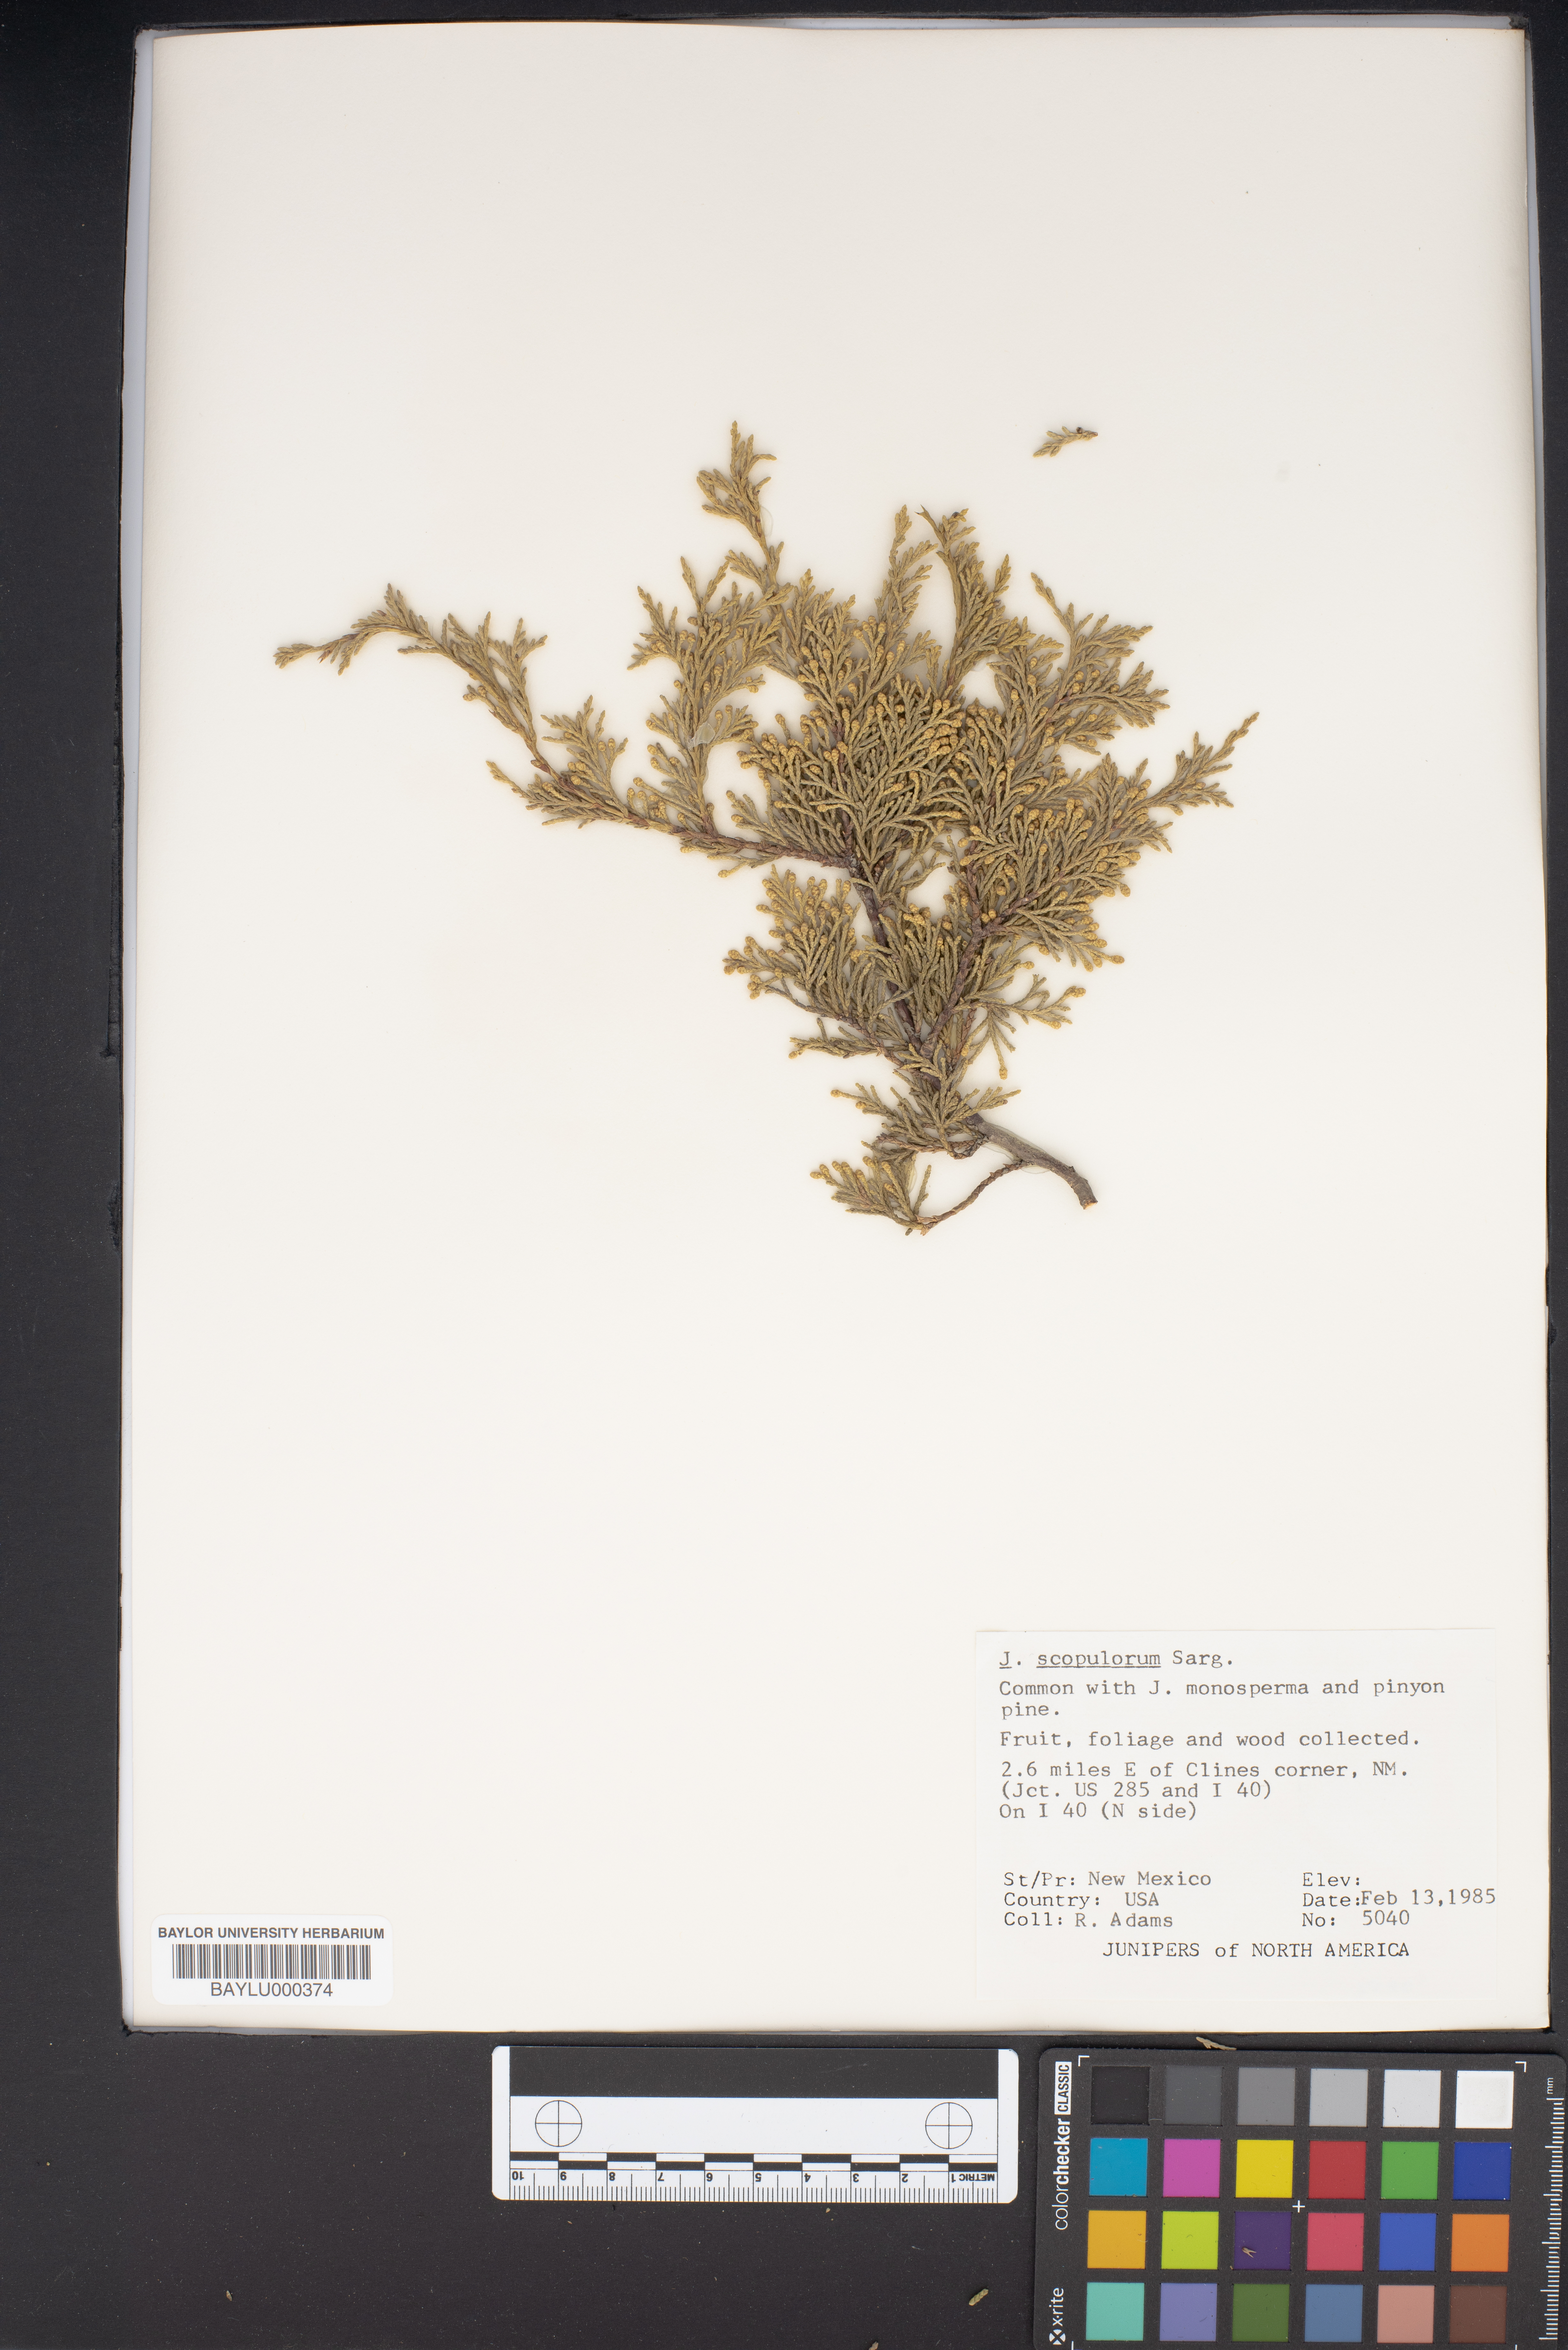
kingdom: Plantae
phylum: Tracheophyta
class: Pinopsida
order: Pinales
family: Cupressaceae
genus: Juniperus
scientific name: Juniperus scopulorum
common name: Rocky mountain juniper
